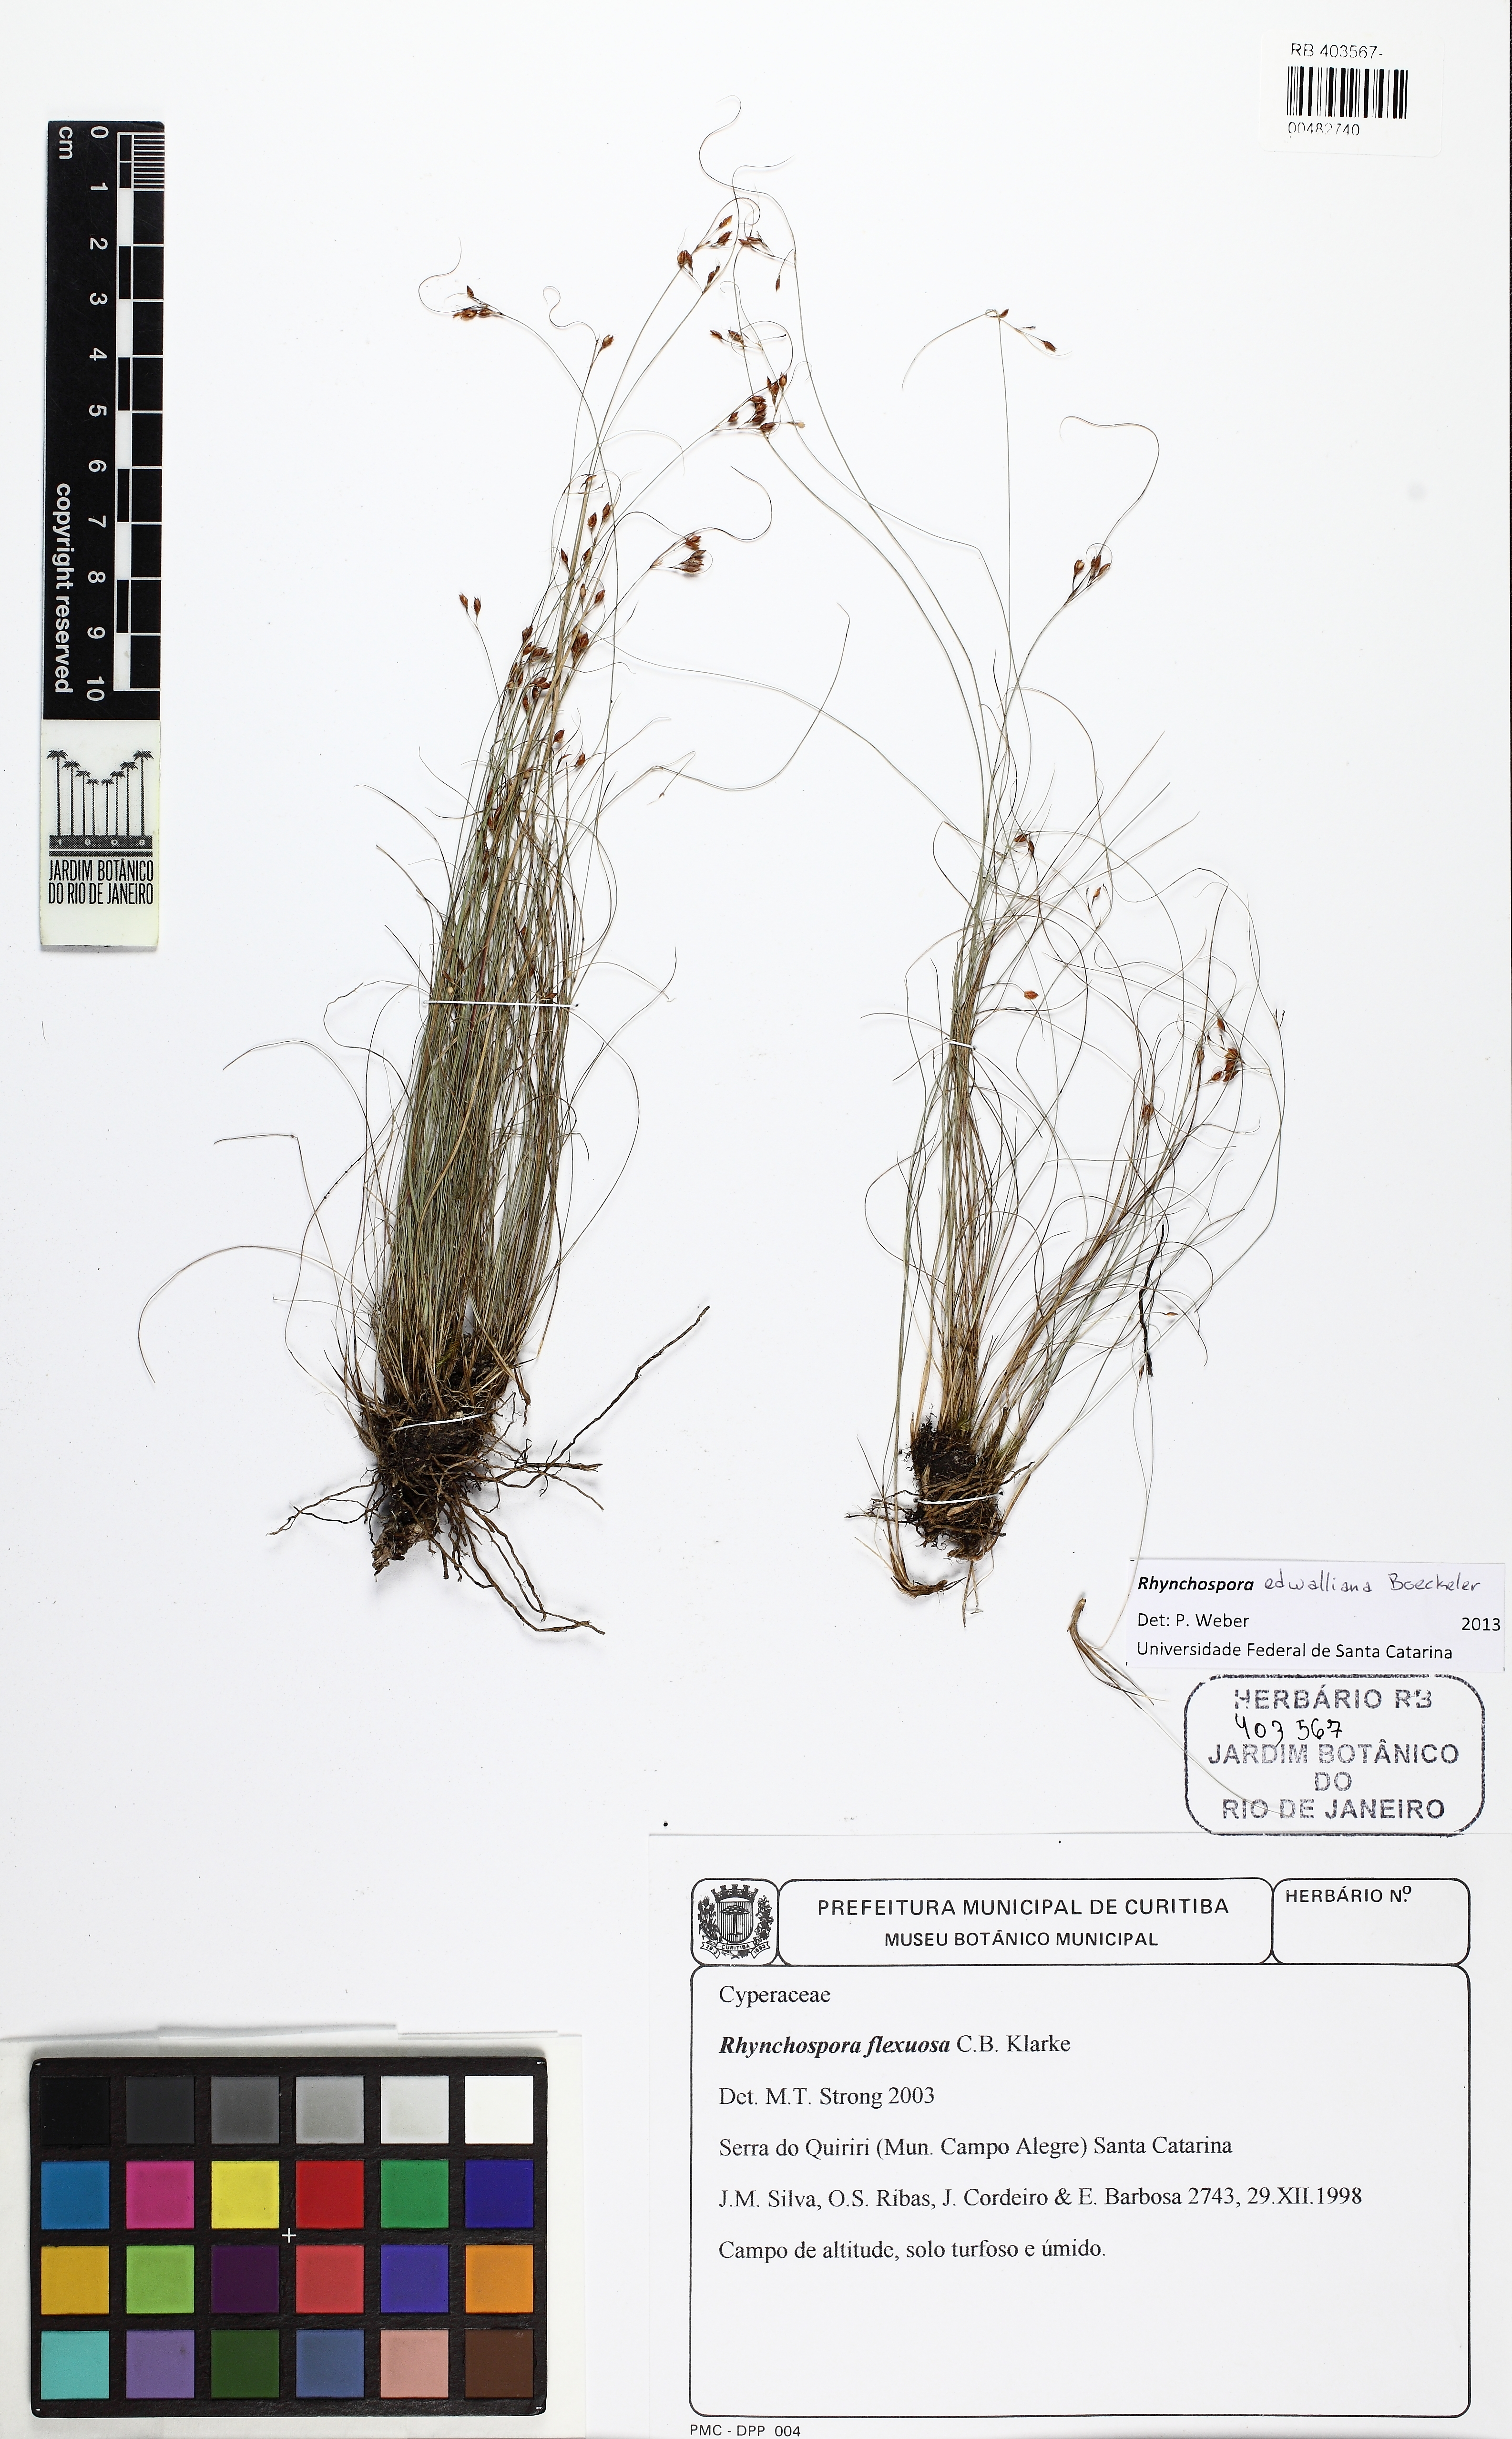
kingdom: Plantae
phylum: Tracheophyta
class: Liliopsida
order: Poales
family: Cyperaceae
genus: Rhynchospora
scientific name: Rhynchospora edwalliana
